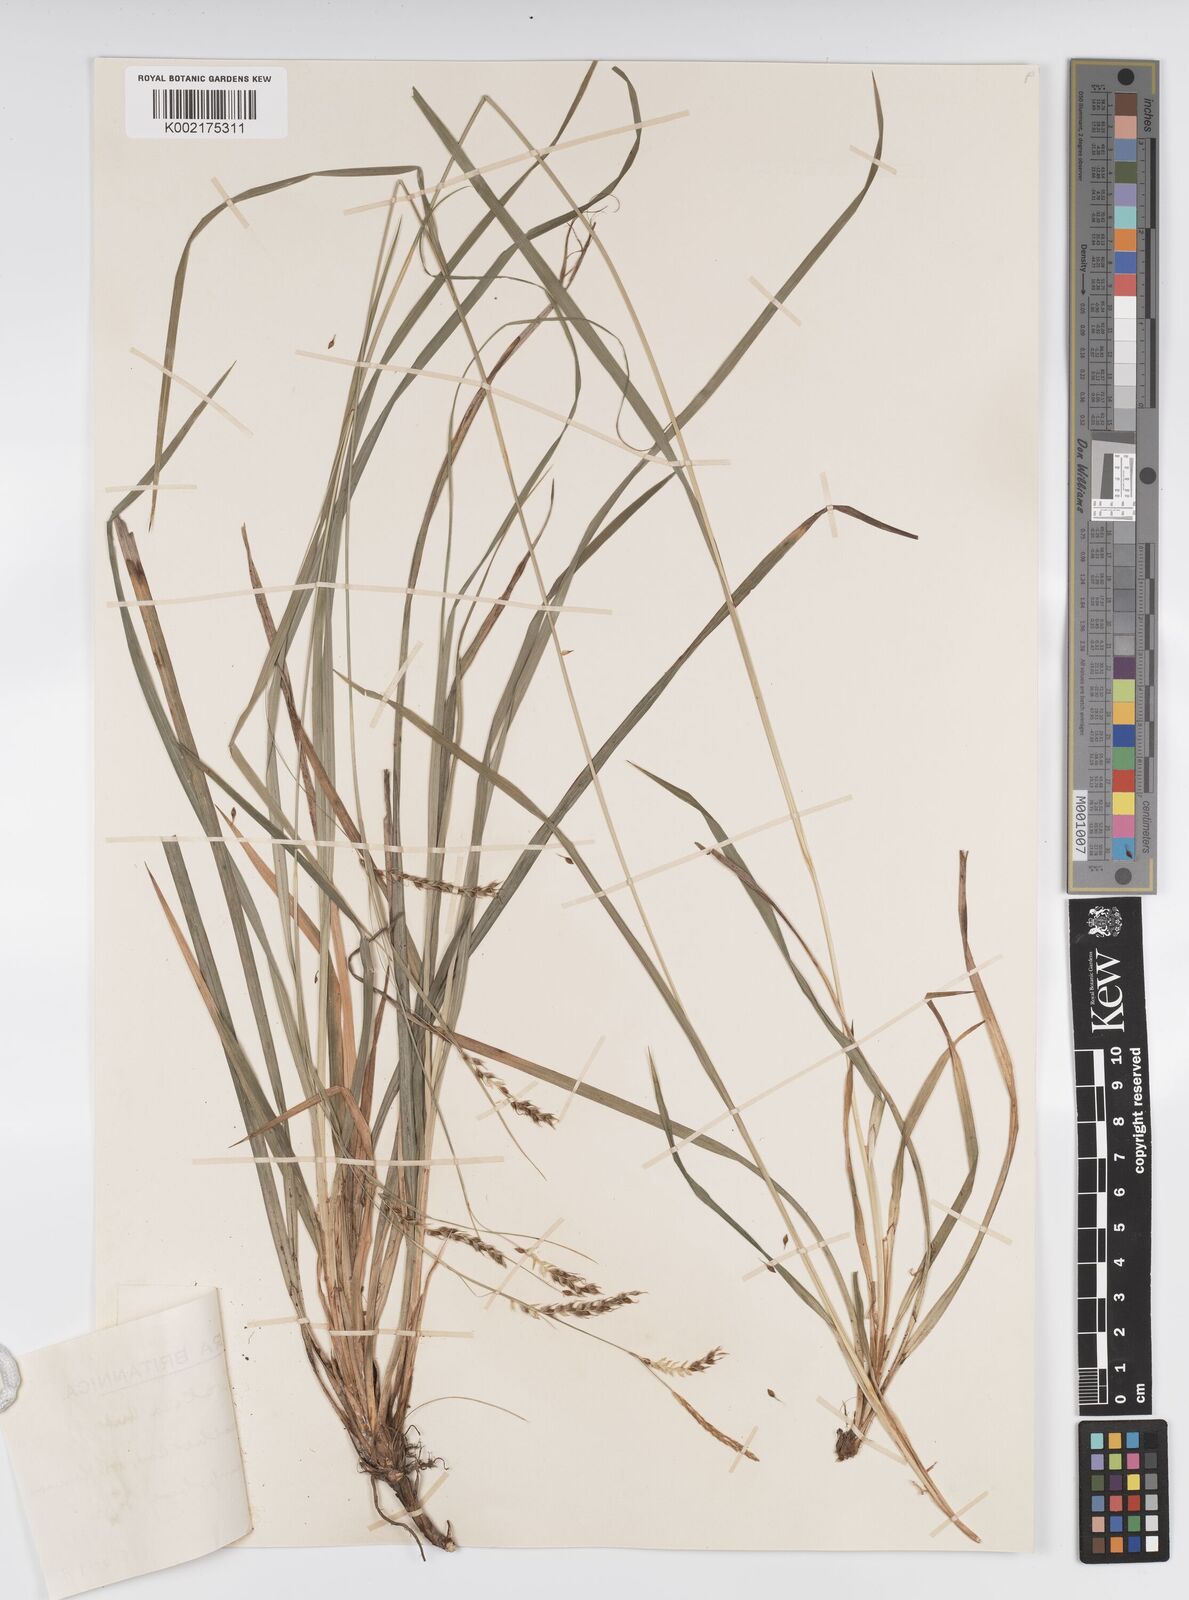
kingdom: Plantae
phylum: Tracheophyta
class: Liliopsida
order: Poales
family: Cyperaceae
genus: Carex
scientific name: Carex sylvatica
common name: Wood-sedge
